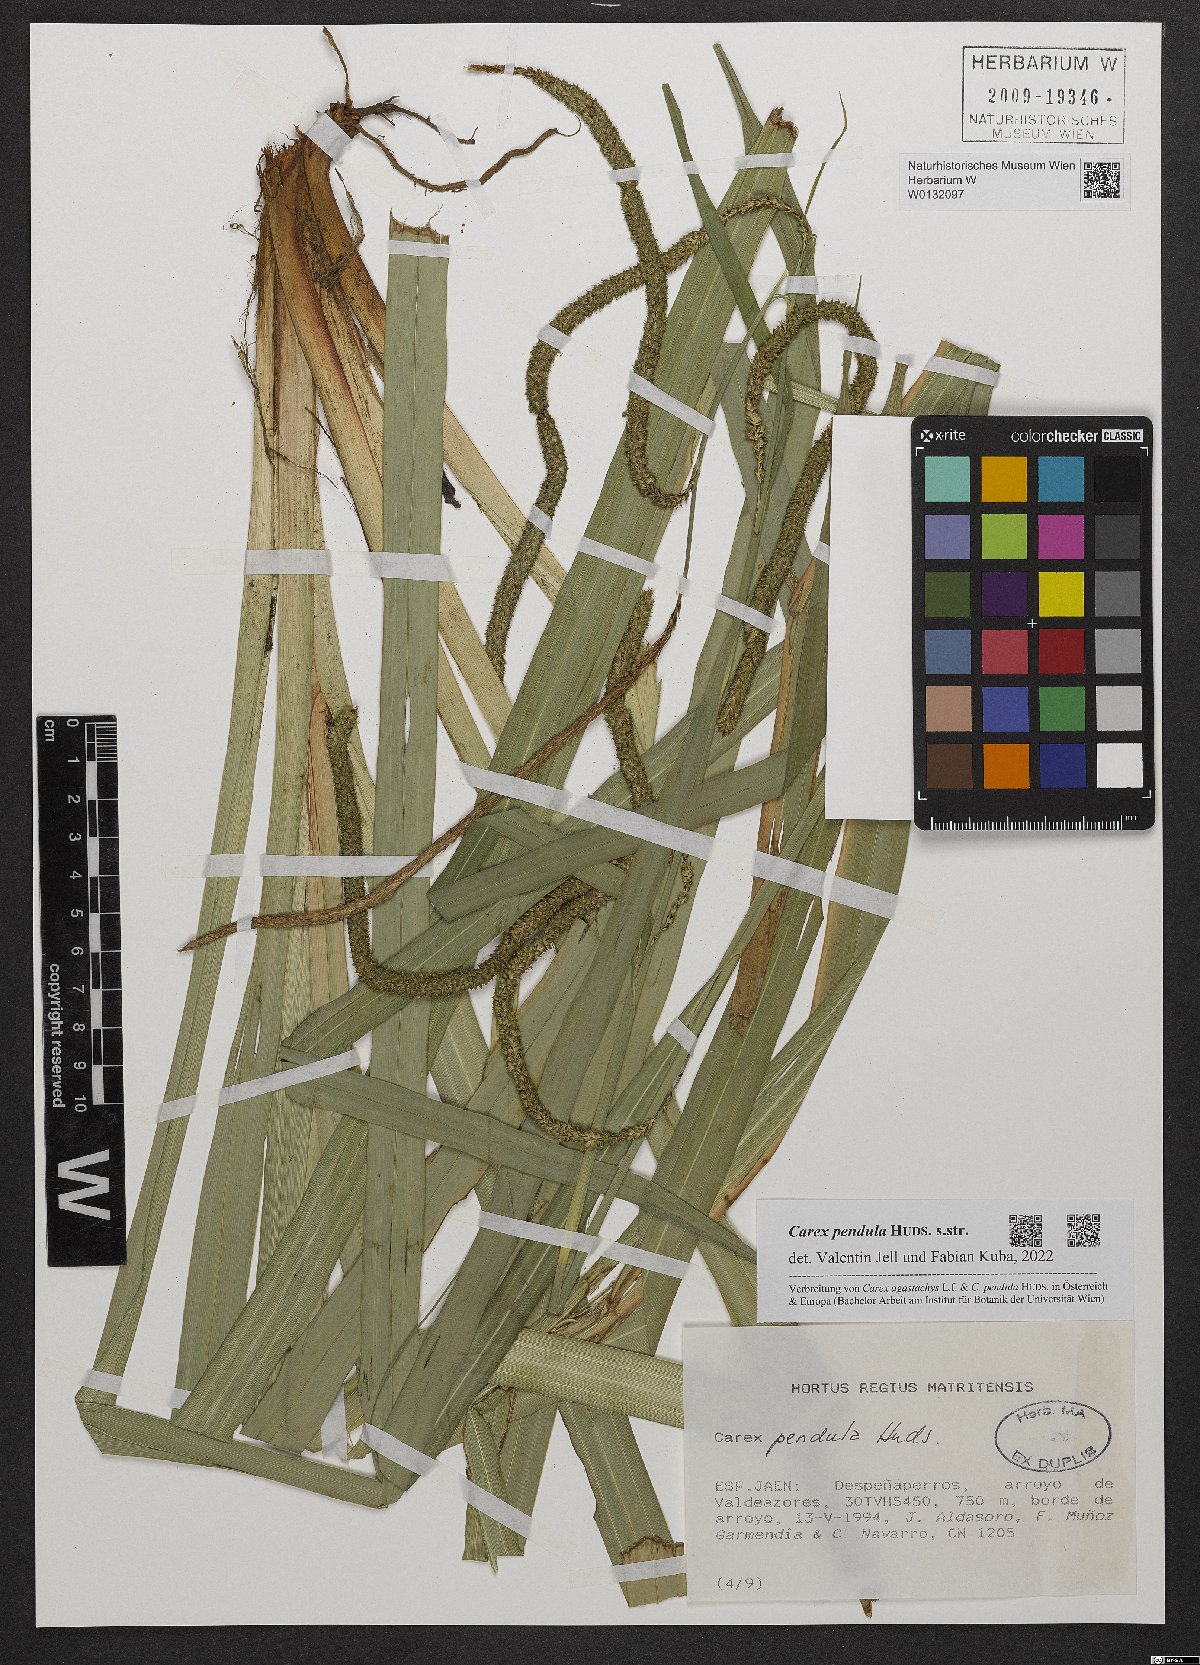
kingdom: Plantae
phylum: Tracheophyta
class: Liliopsida
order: Poales
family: Cyperaceae
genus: Carex
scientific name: Carex pendula
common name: Pendulous sedge
